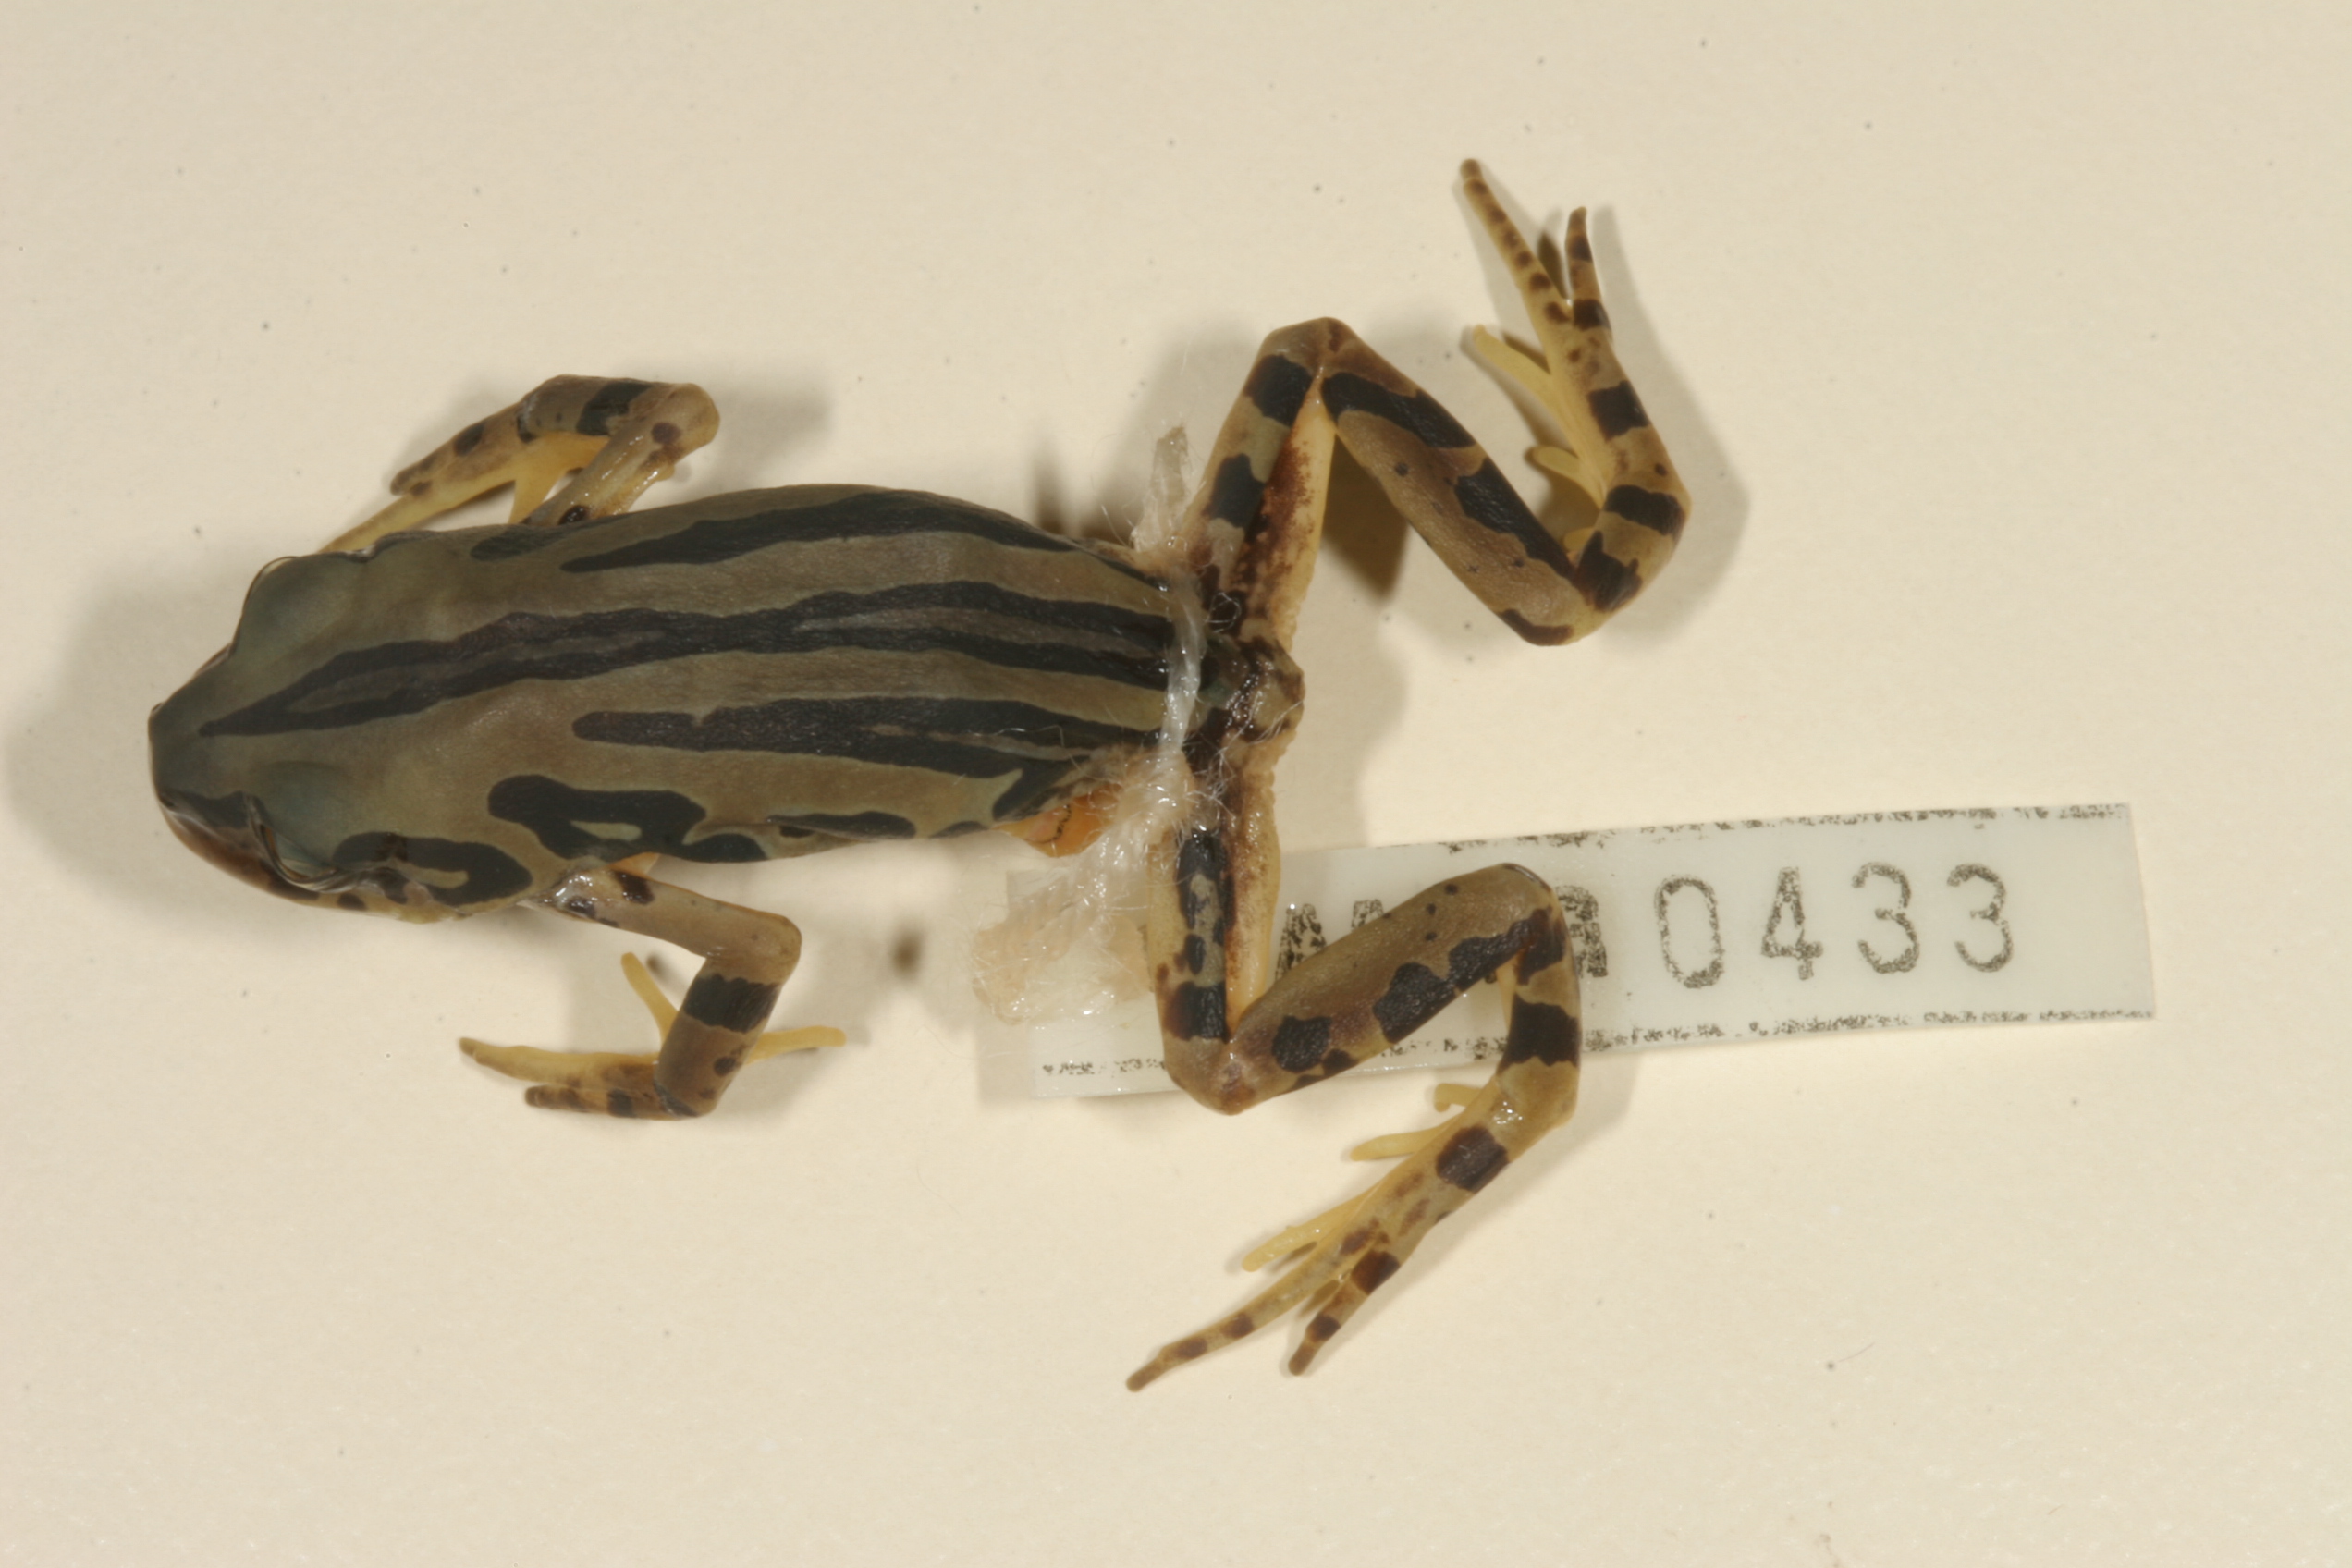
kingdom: Animalia
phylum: Chordata
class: Amphibia
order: Anura
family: Hyperoliidae
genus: Semnodactylus
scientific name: Semnodactylus wealii
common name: Weal's frog
